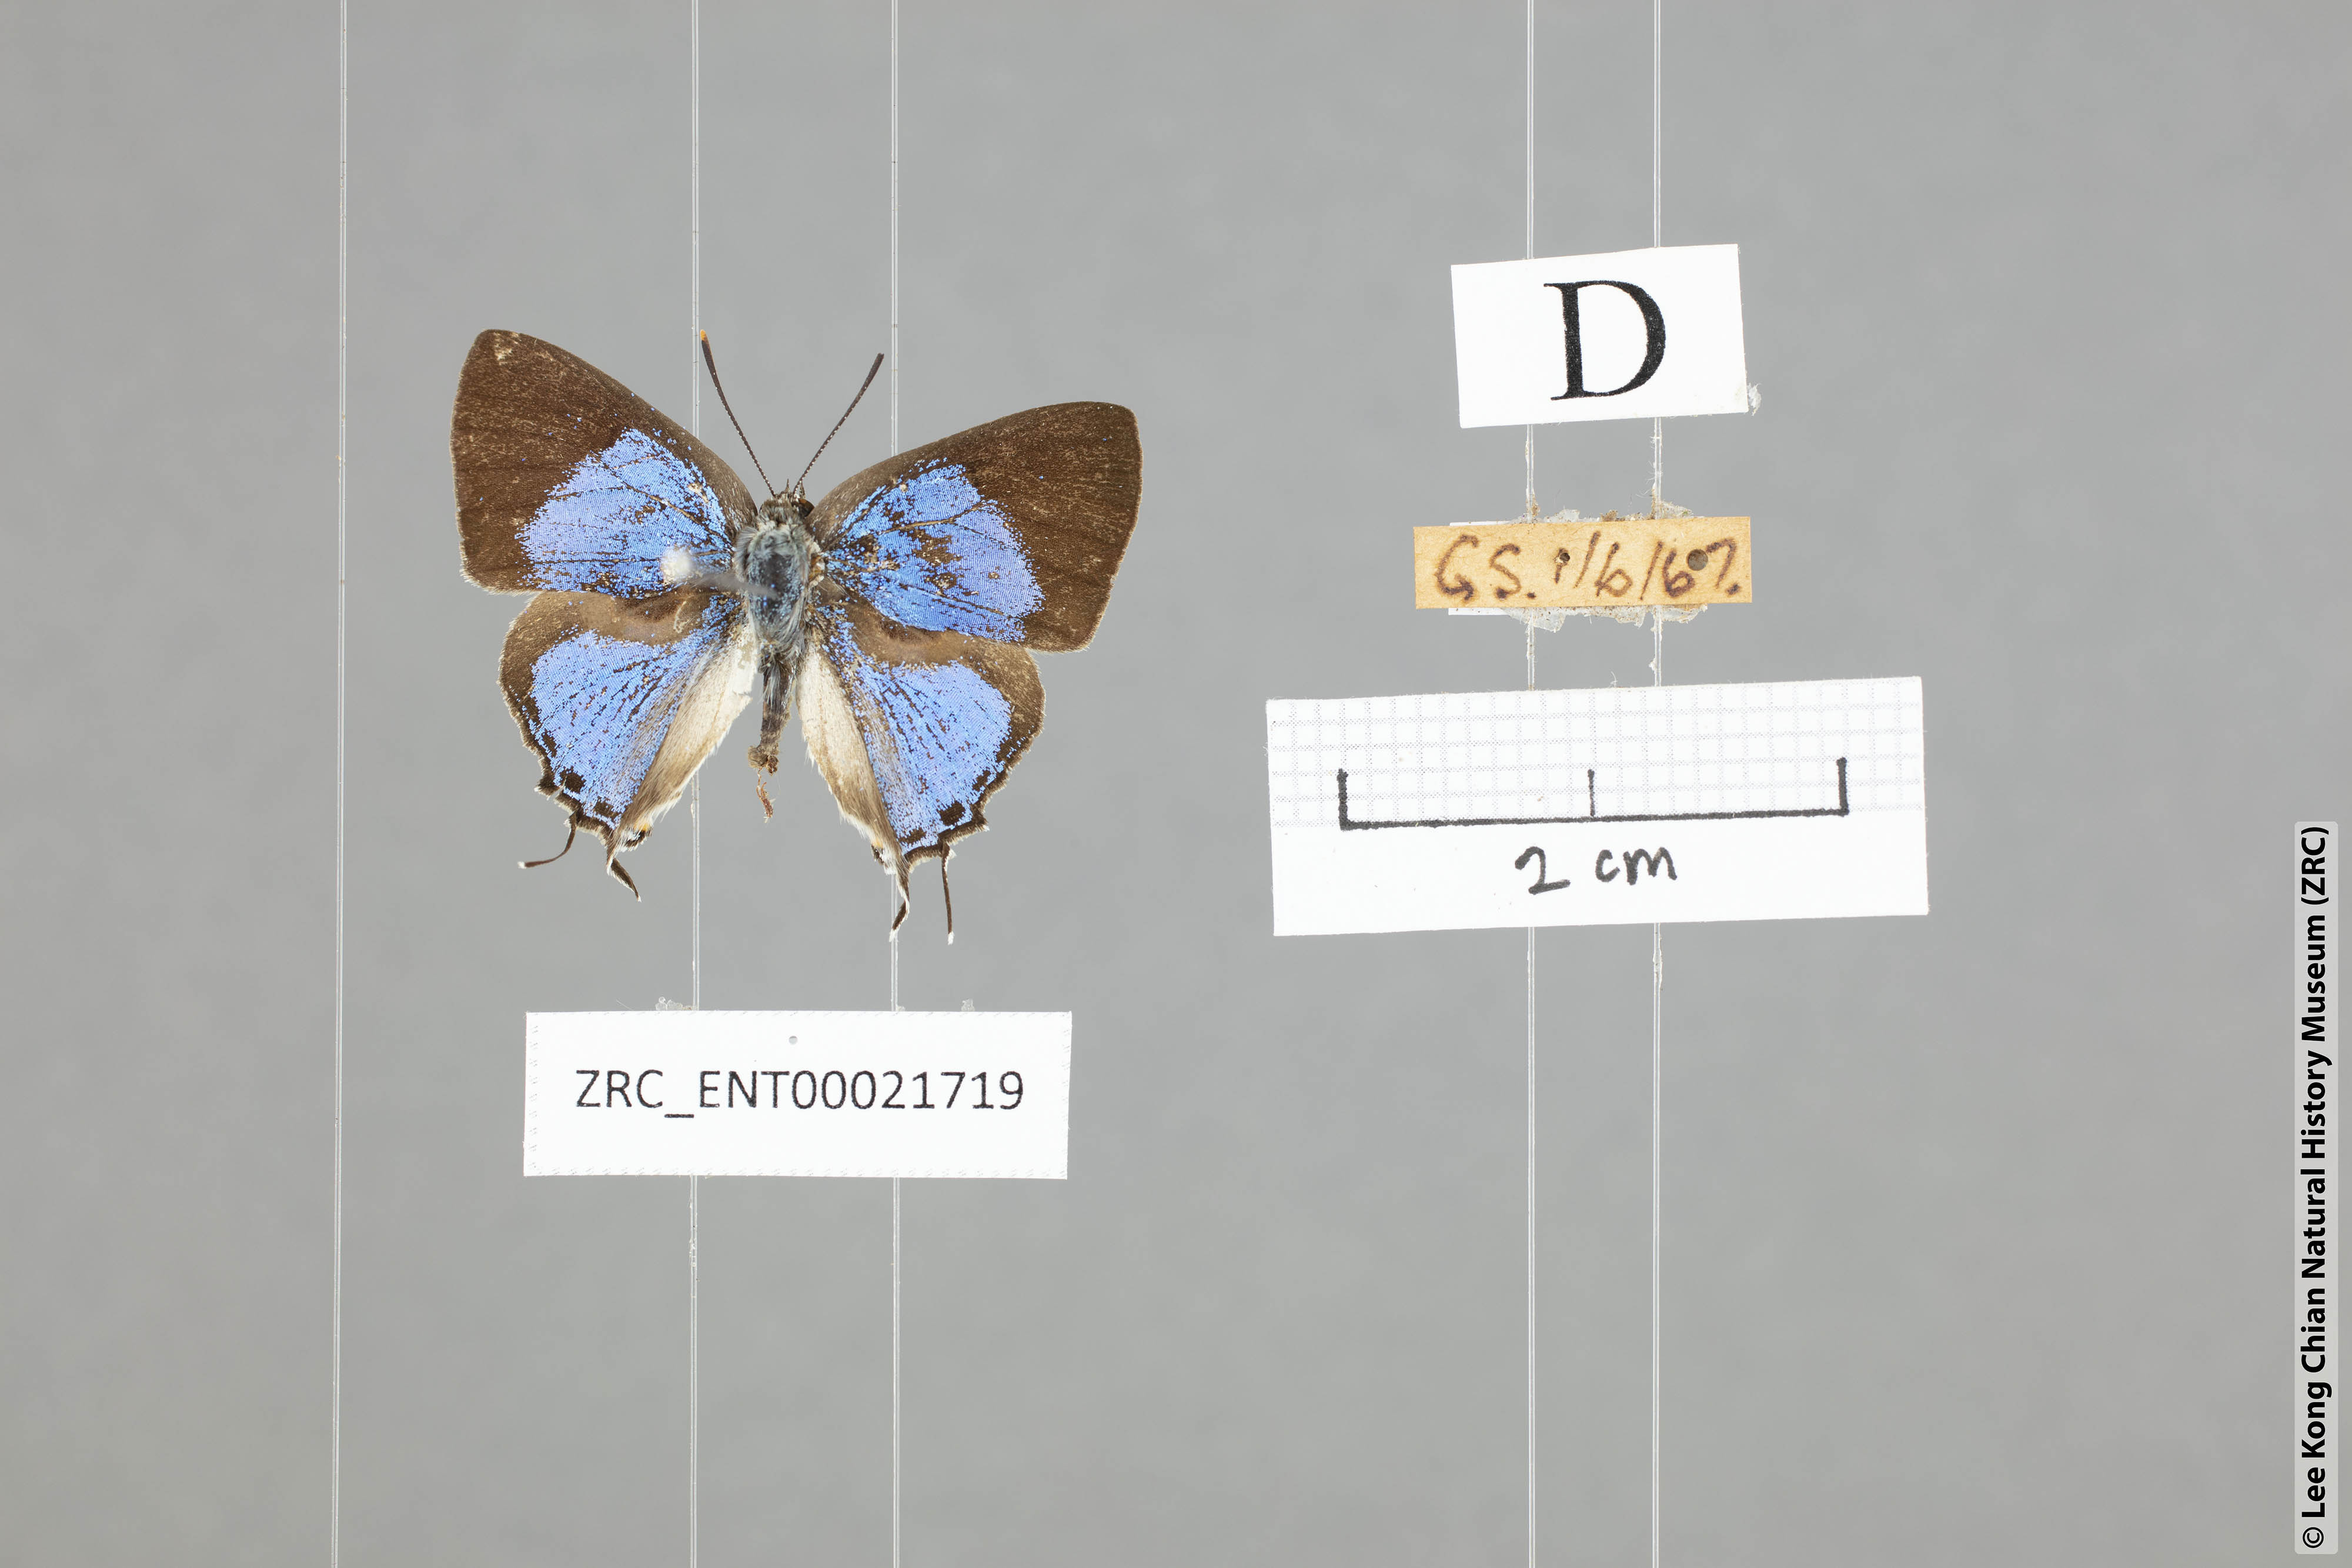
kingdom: Animalia
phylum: Arthropoda
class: Insecta
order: Lepidoptera
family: Lycaenidae
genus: Pratapa
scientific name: Pratapa deva
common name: White royal
